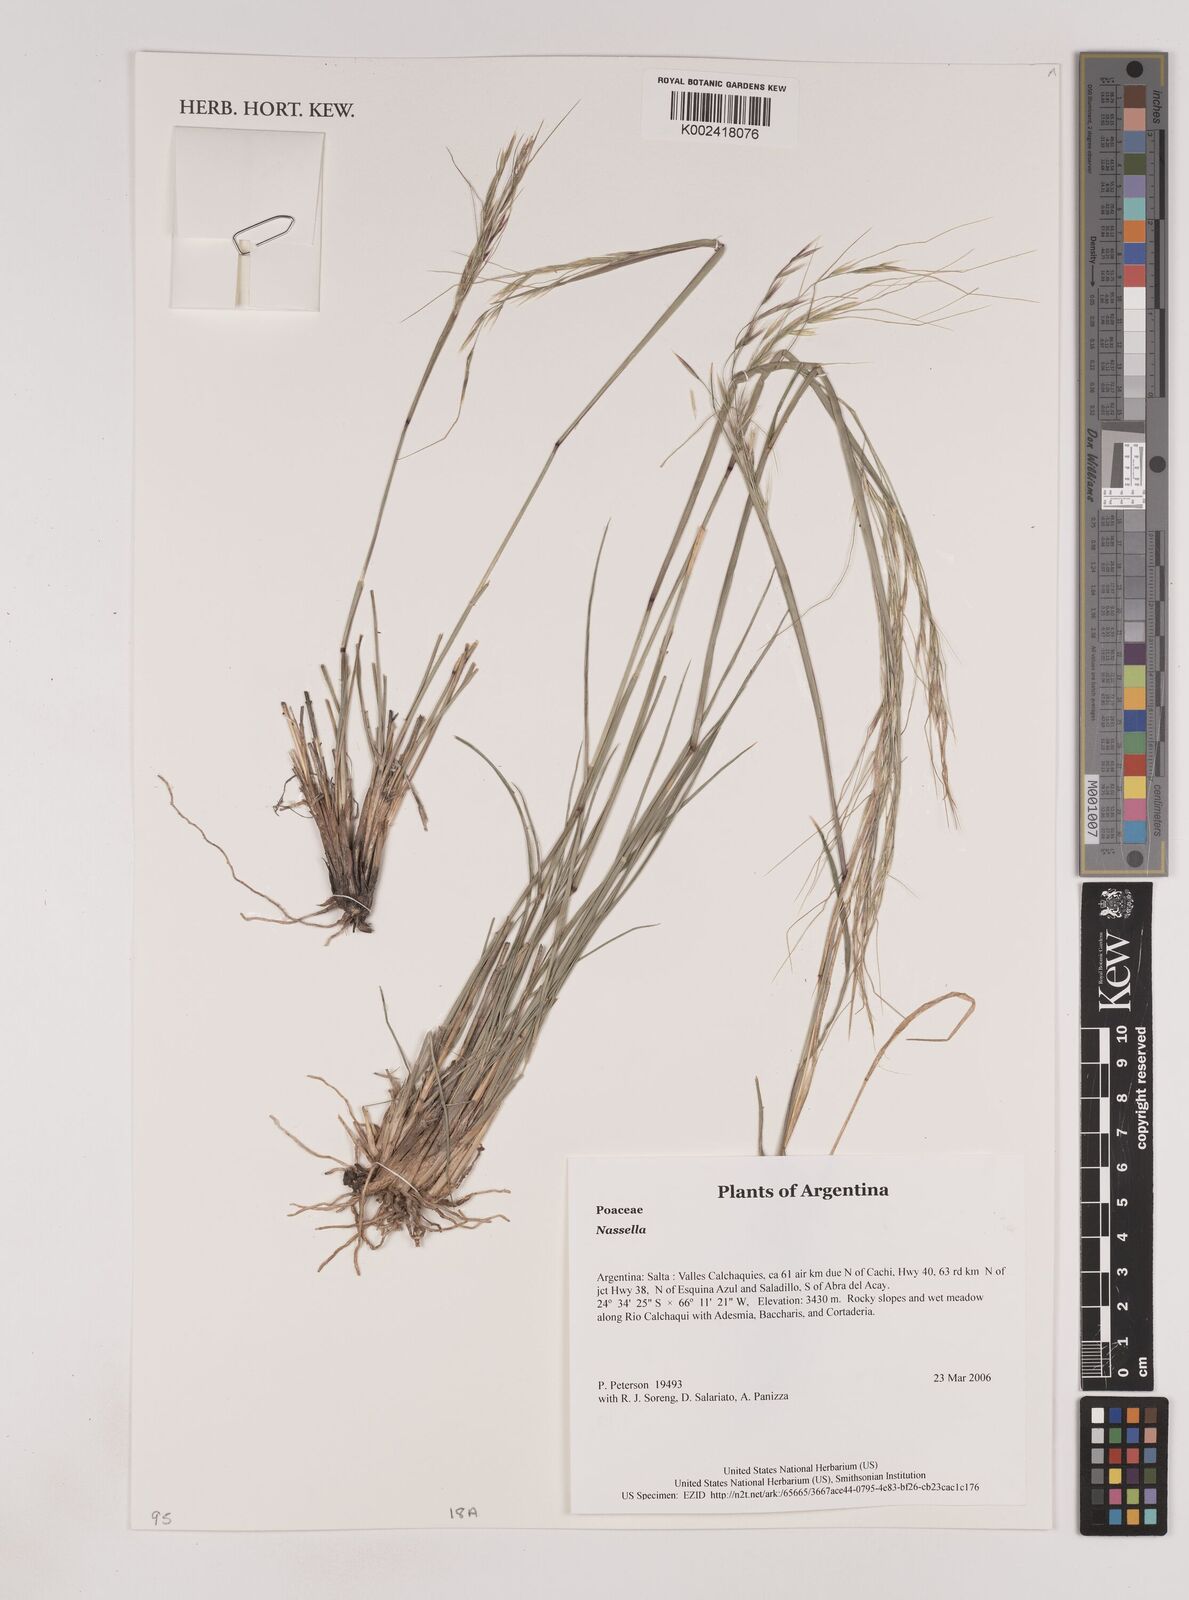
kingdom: Plantae
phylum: Tracheophyta
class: Liliopsida
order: Poales
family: Poaceae
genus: Nassella
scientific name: Nassella
